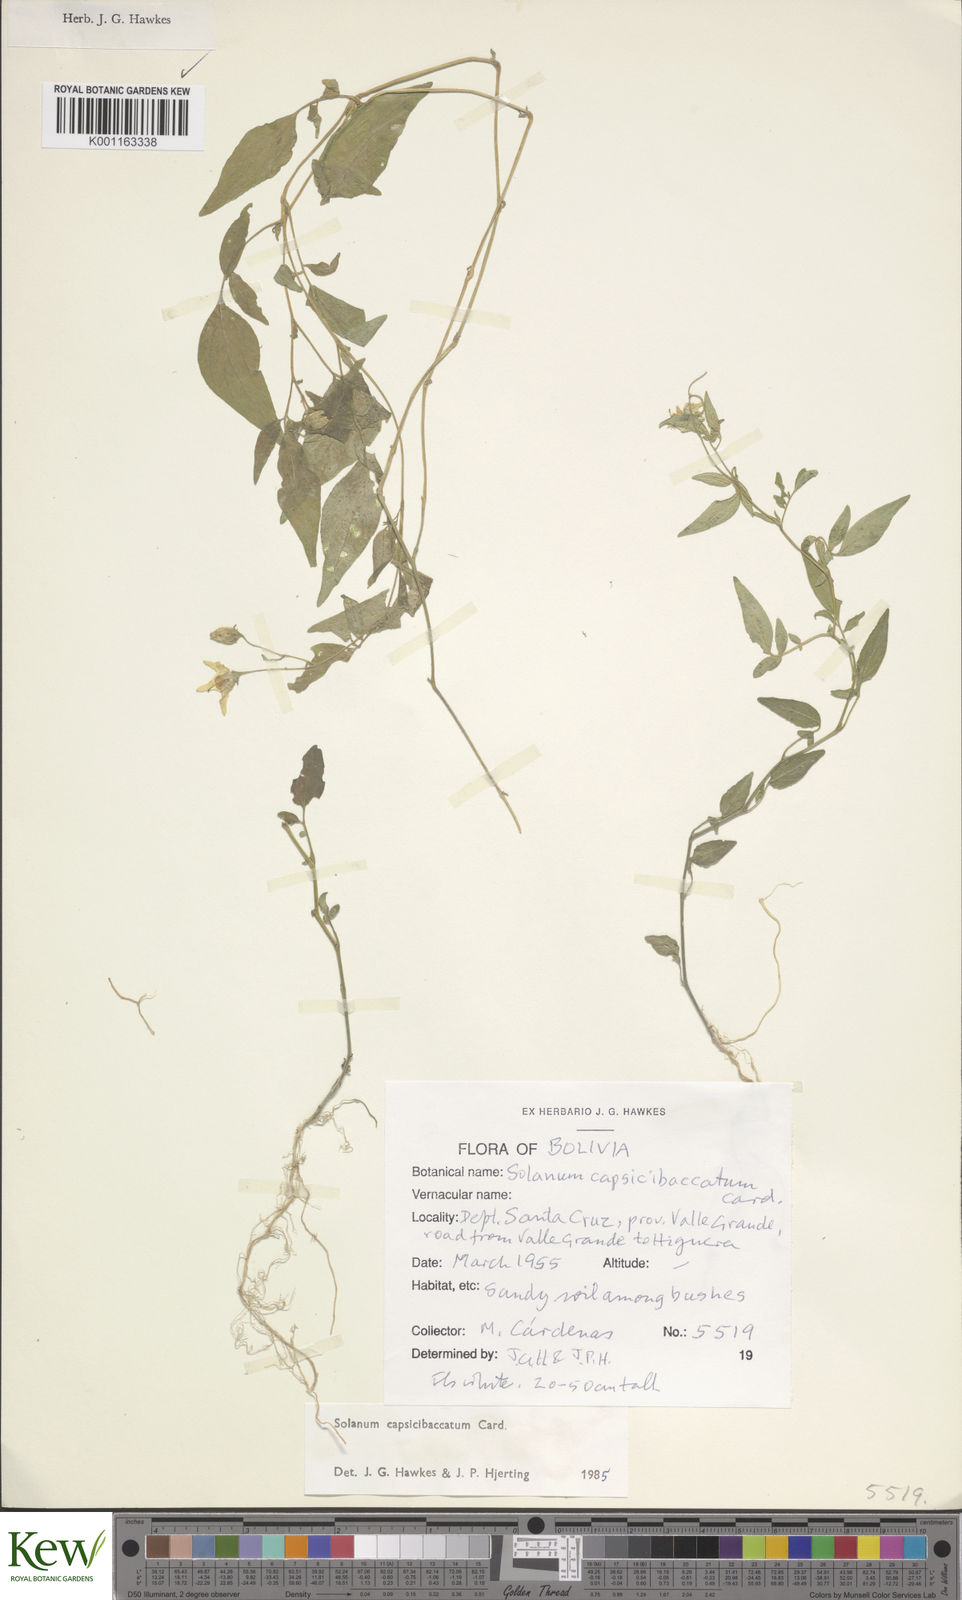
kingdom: Plantae
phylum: Tracheophyta
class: Magnoliopsida
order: Solanales
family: Solanaceae
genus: Solanum
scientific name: Solanum stipuloideum
